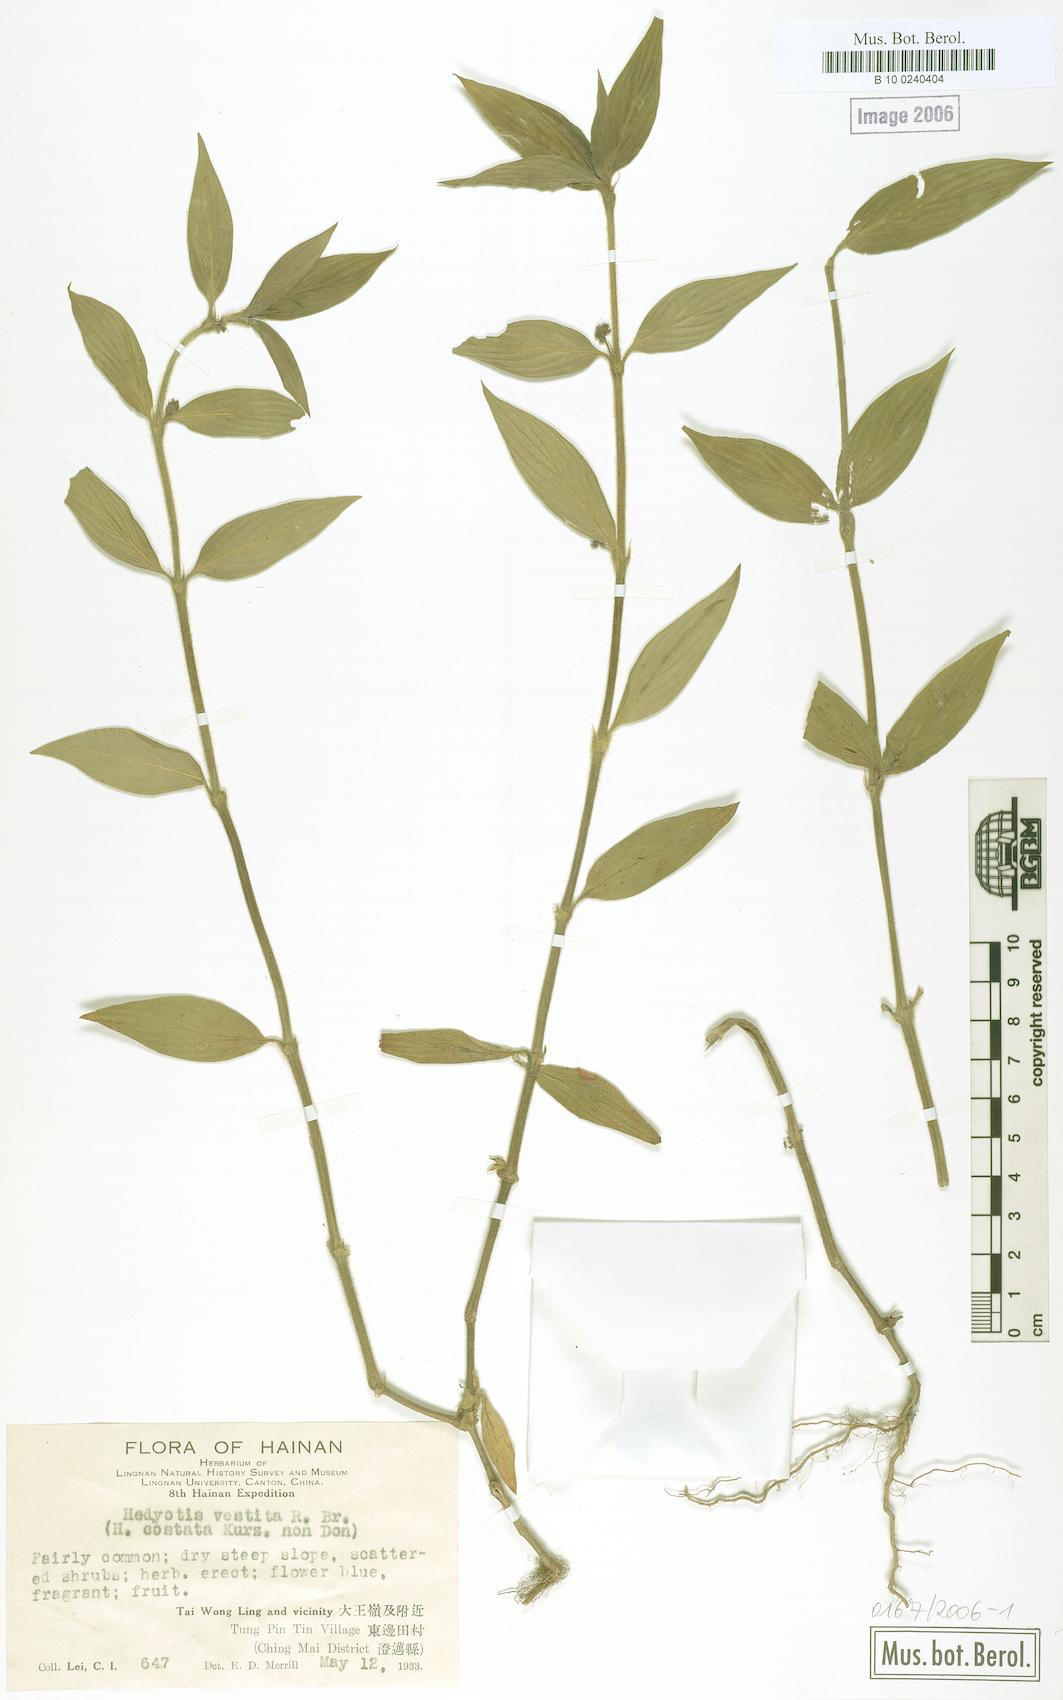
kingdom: Plantae
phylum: Tracheophyta
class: Magnoliopsida
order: Gentianales
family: Rubiaceae
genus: Hedyotis
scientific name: Hedyotis vestita
